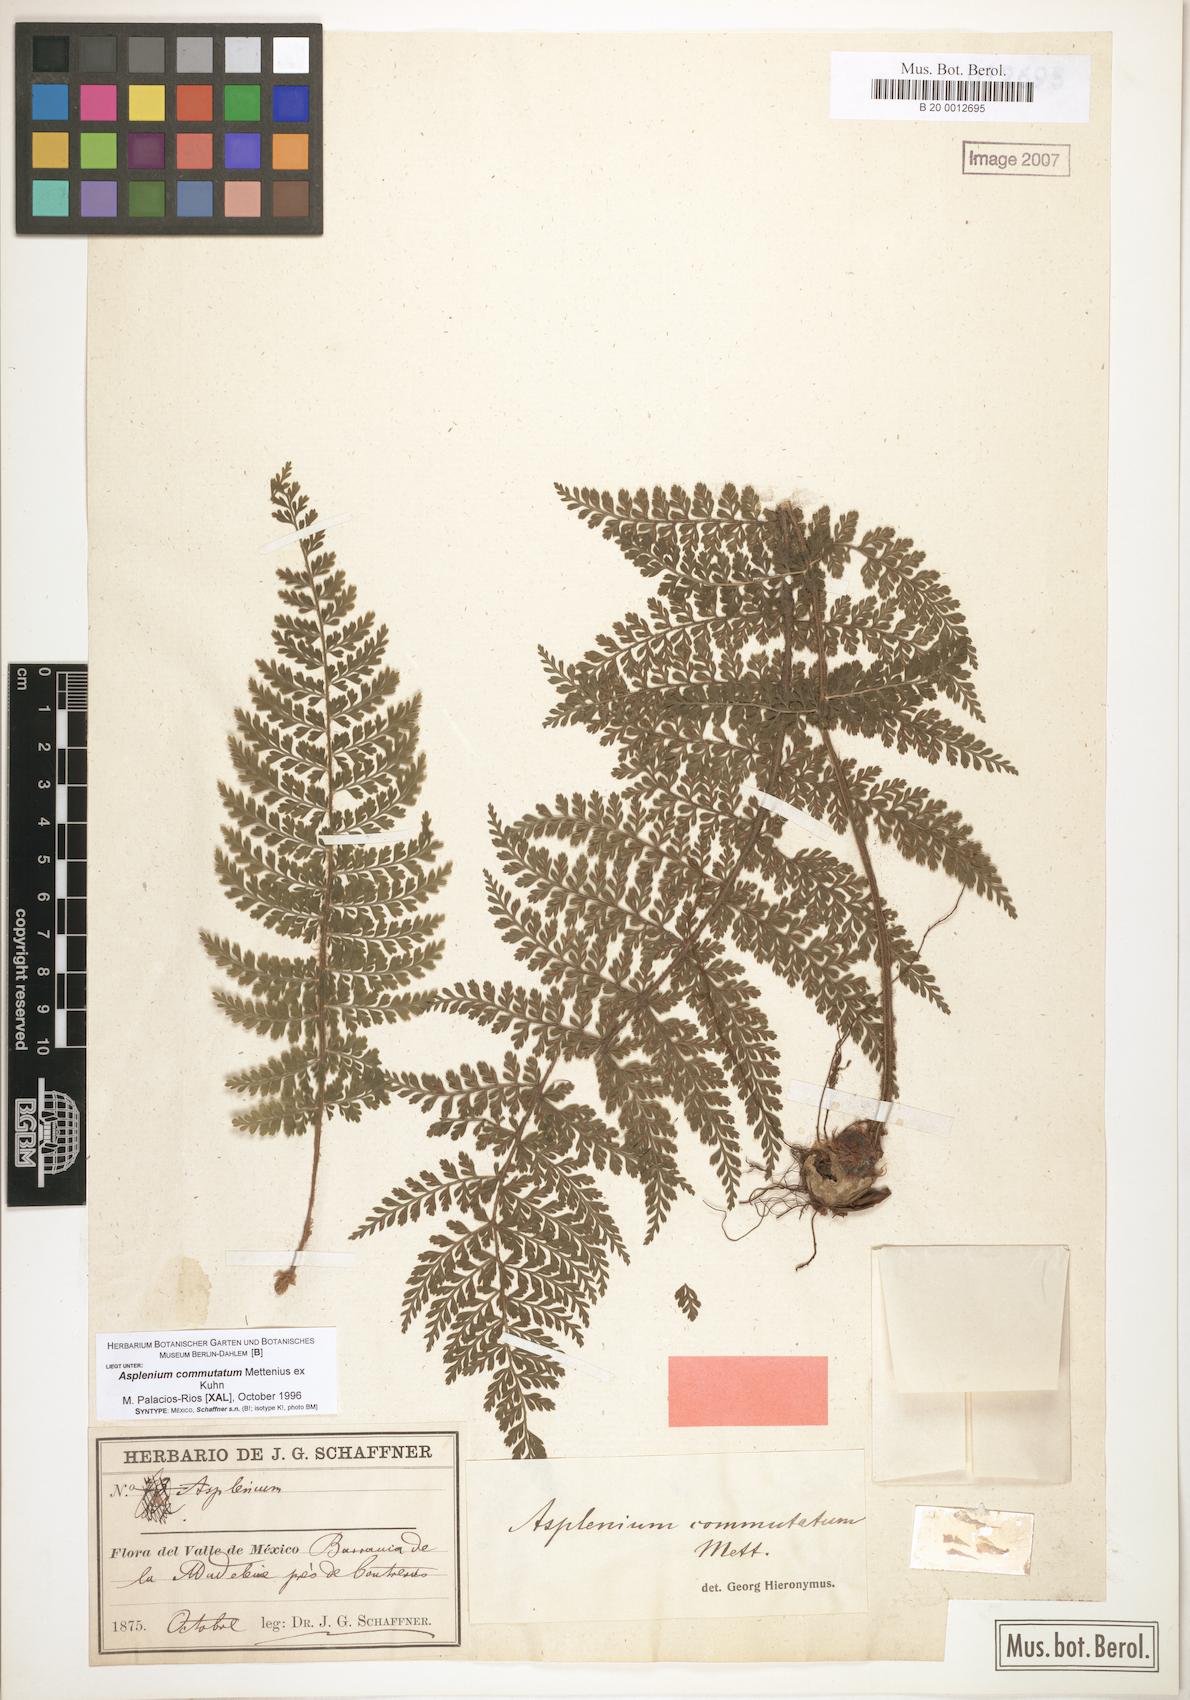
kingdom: Plantae
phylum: Tracheophyta
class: Polypodiopsida
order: Polypodiales
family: Aspleniaceae
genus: Asplenium
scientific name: Asplenium blepharophorum
